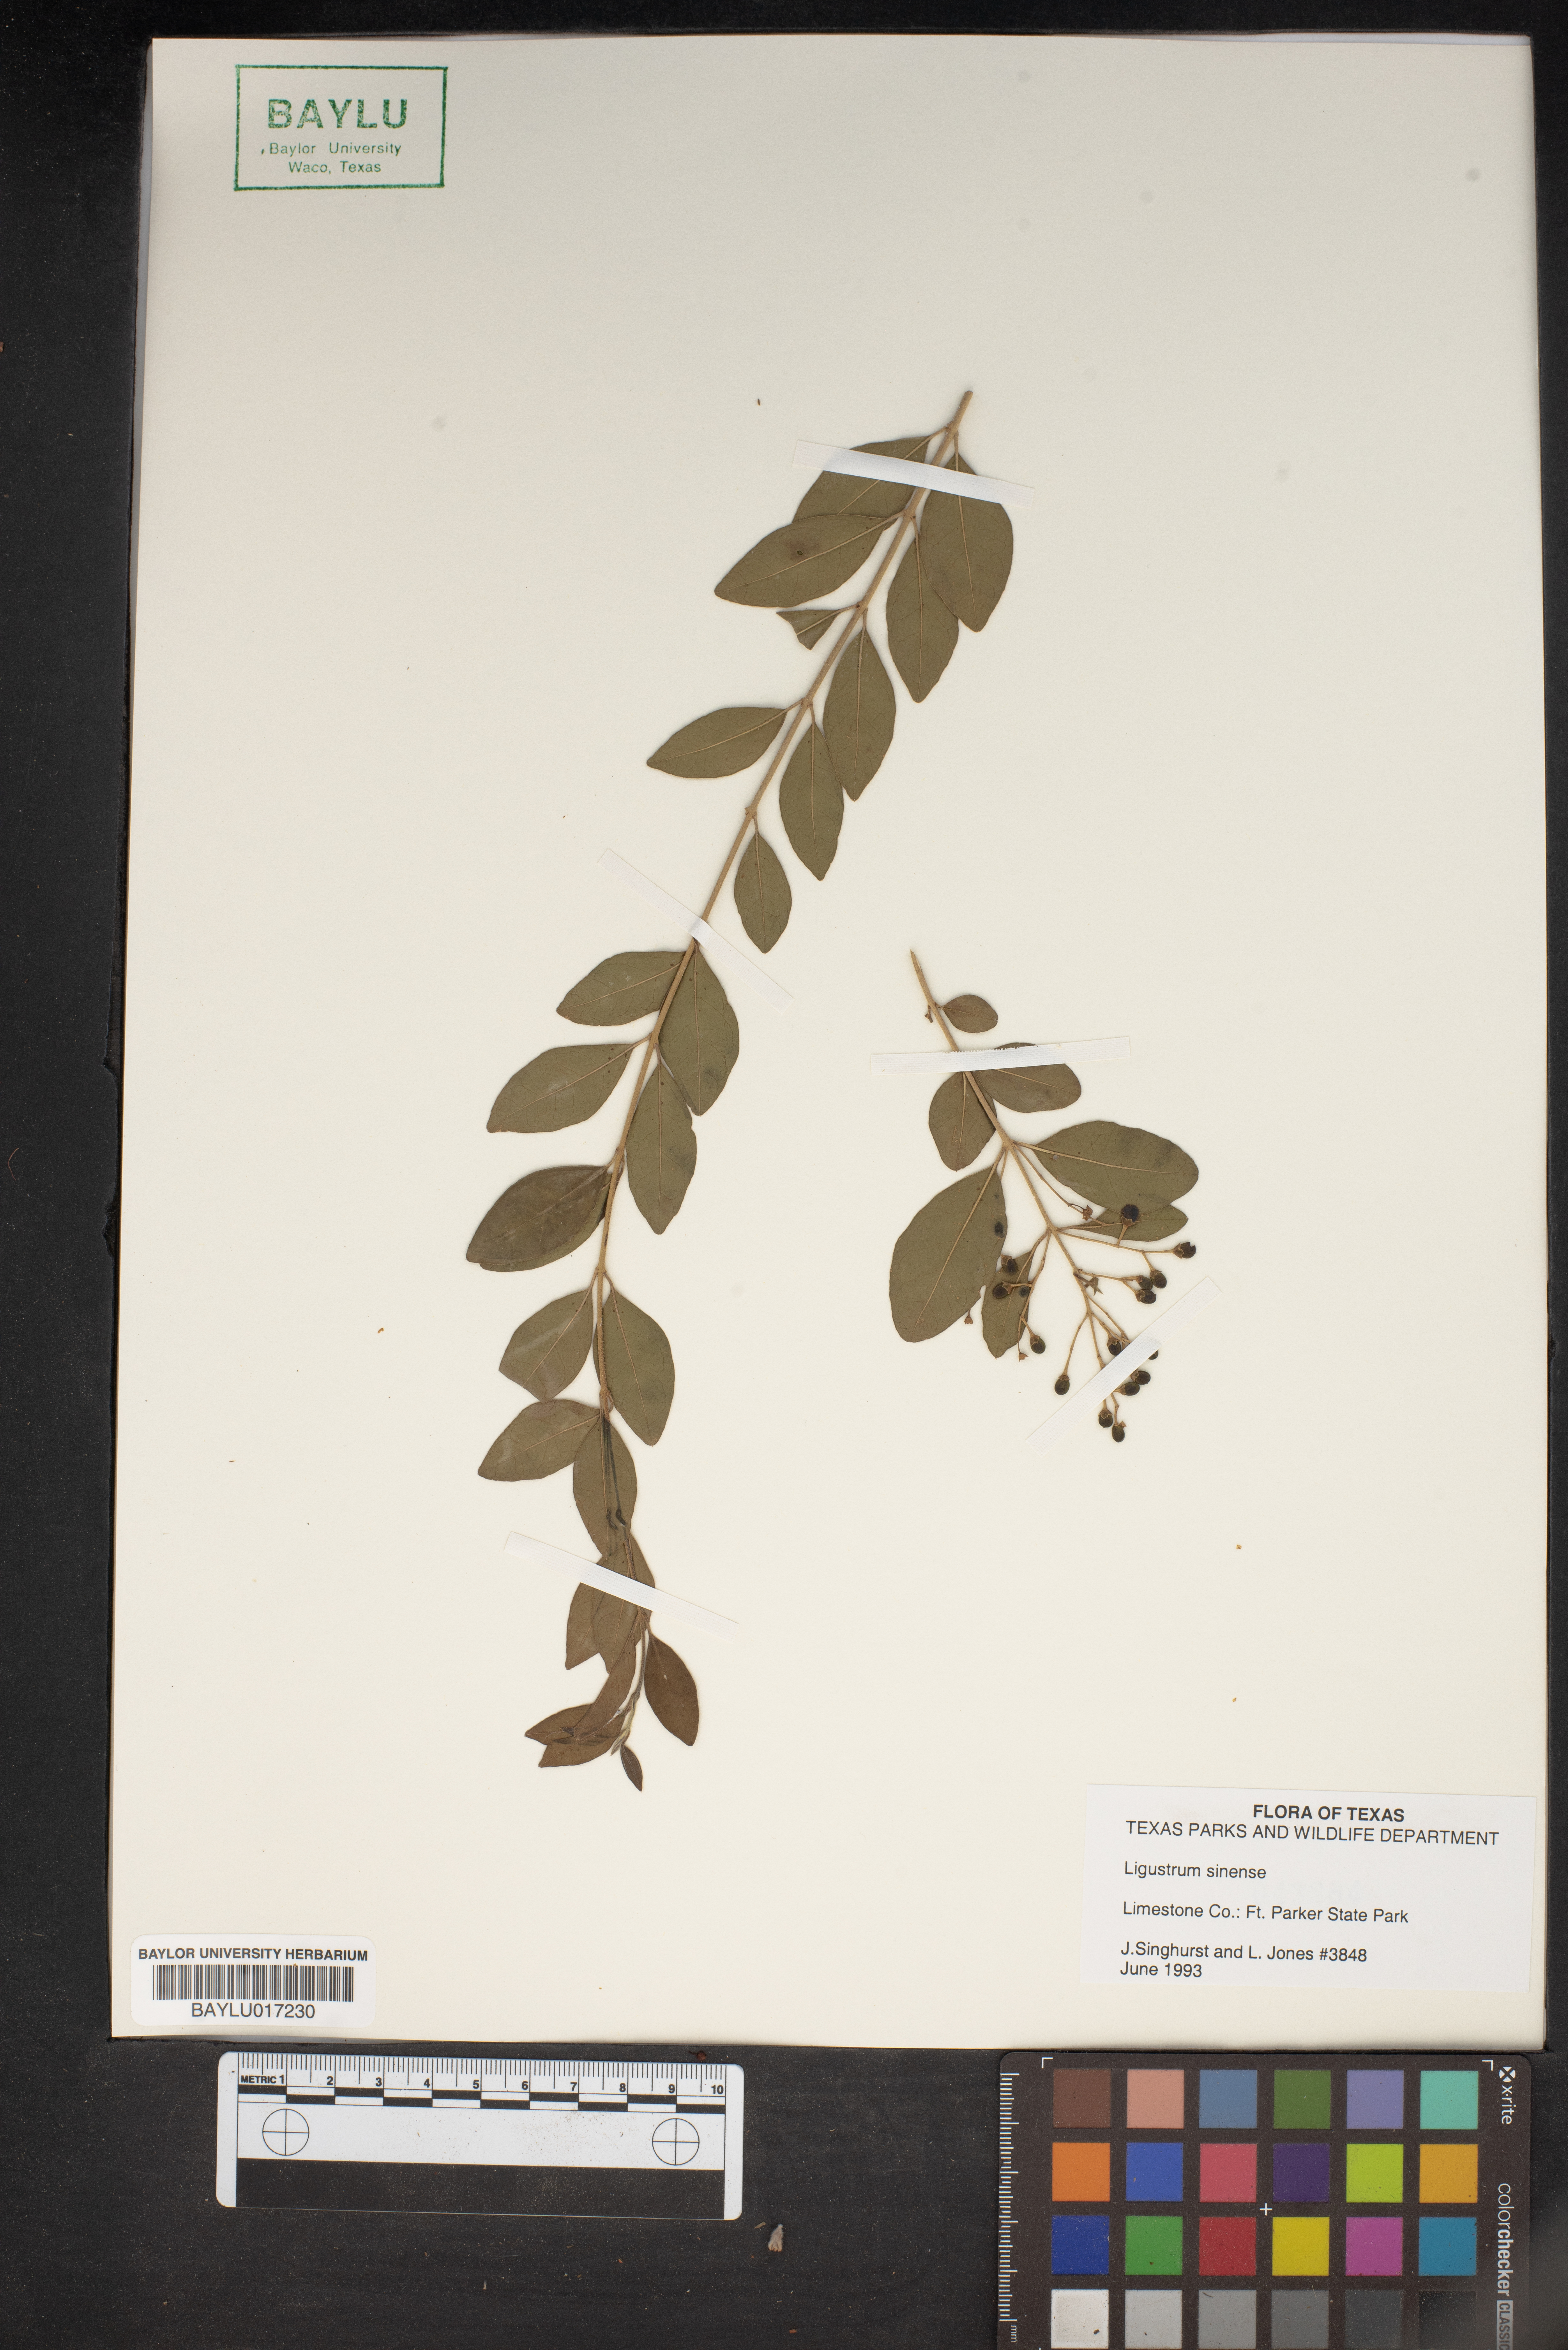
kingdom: Plantae
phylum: Tracheophyta
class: Magnoliopsida
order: Lamiales
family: Oleaceae
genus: Ligustrum
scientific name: Ligustrum sinense
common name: Chinese privet
